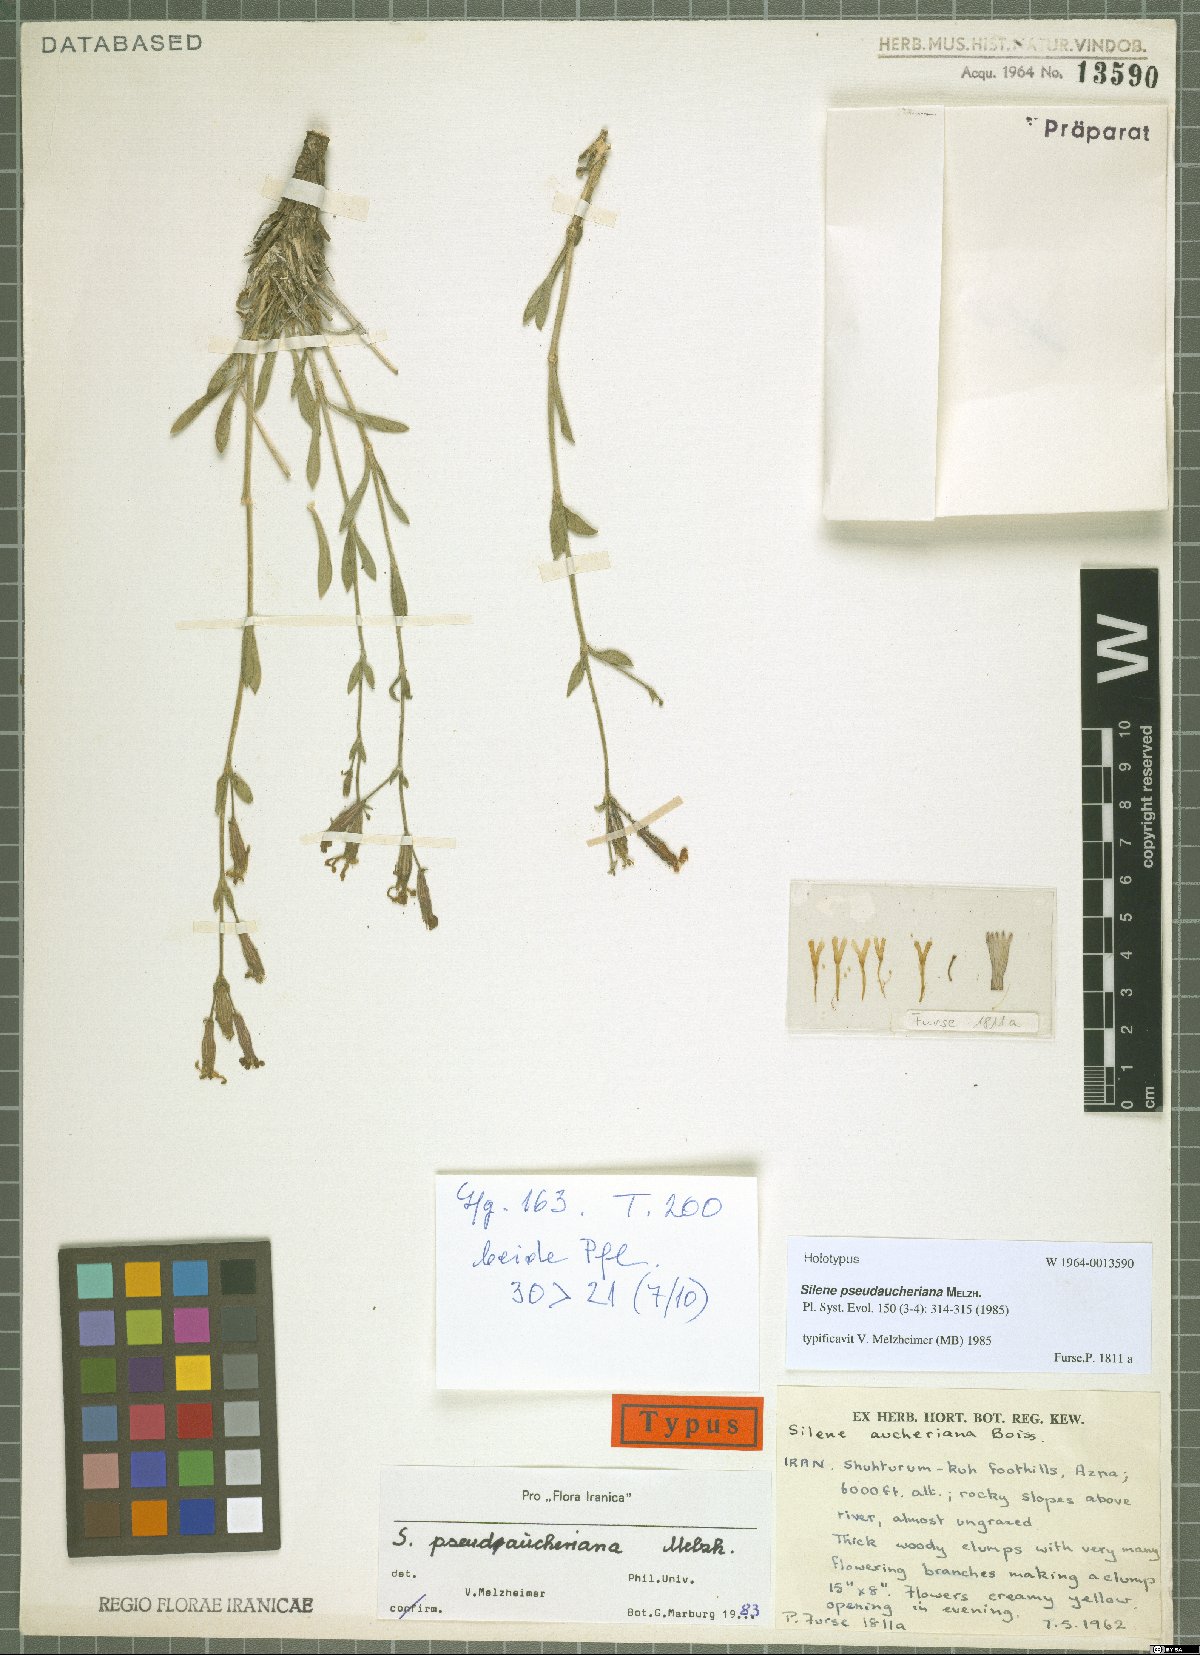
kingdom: Plantae
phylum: Tracheophyta
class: Magnoliopsida
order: Caryophyllales
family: Caryophyllaceae
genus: Silene
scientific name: Silene pseudaucheriana
